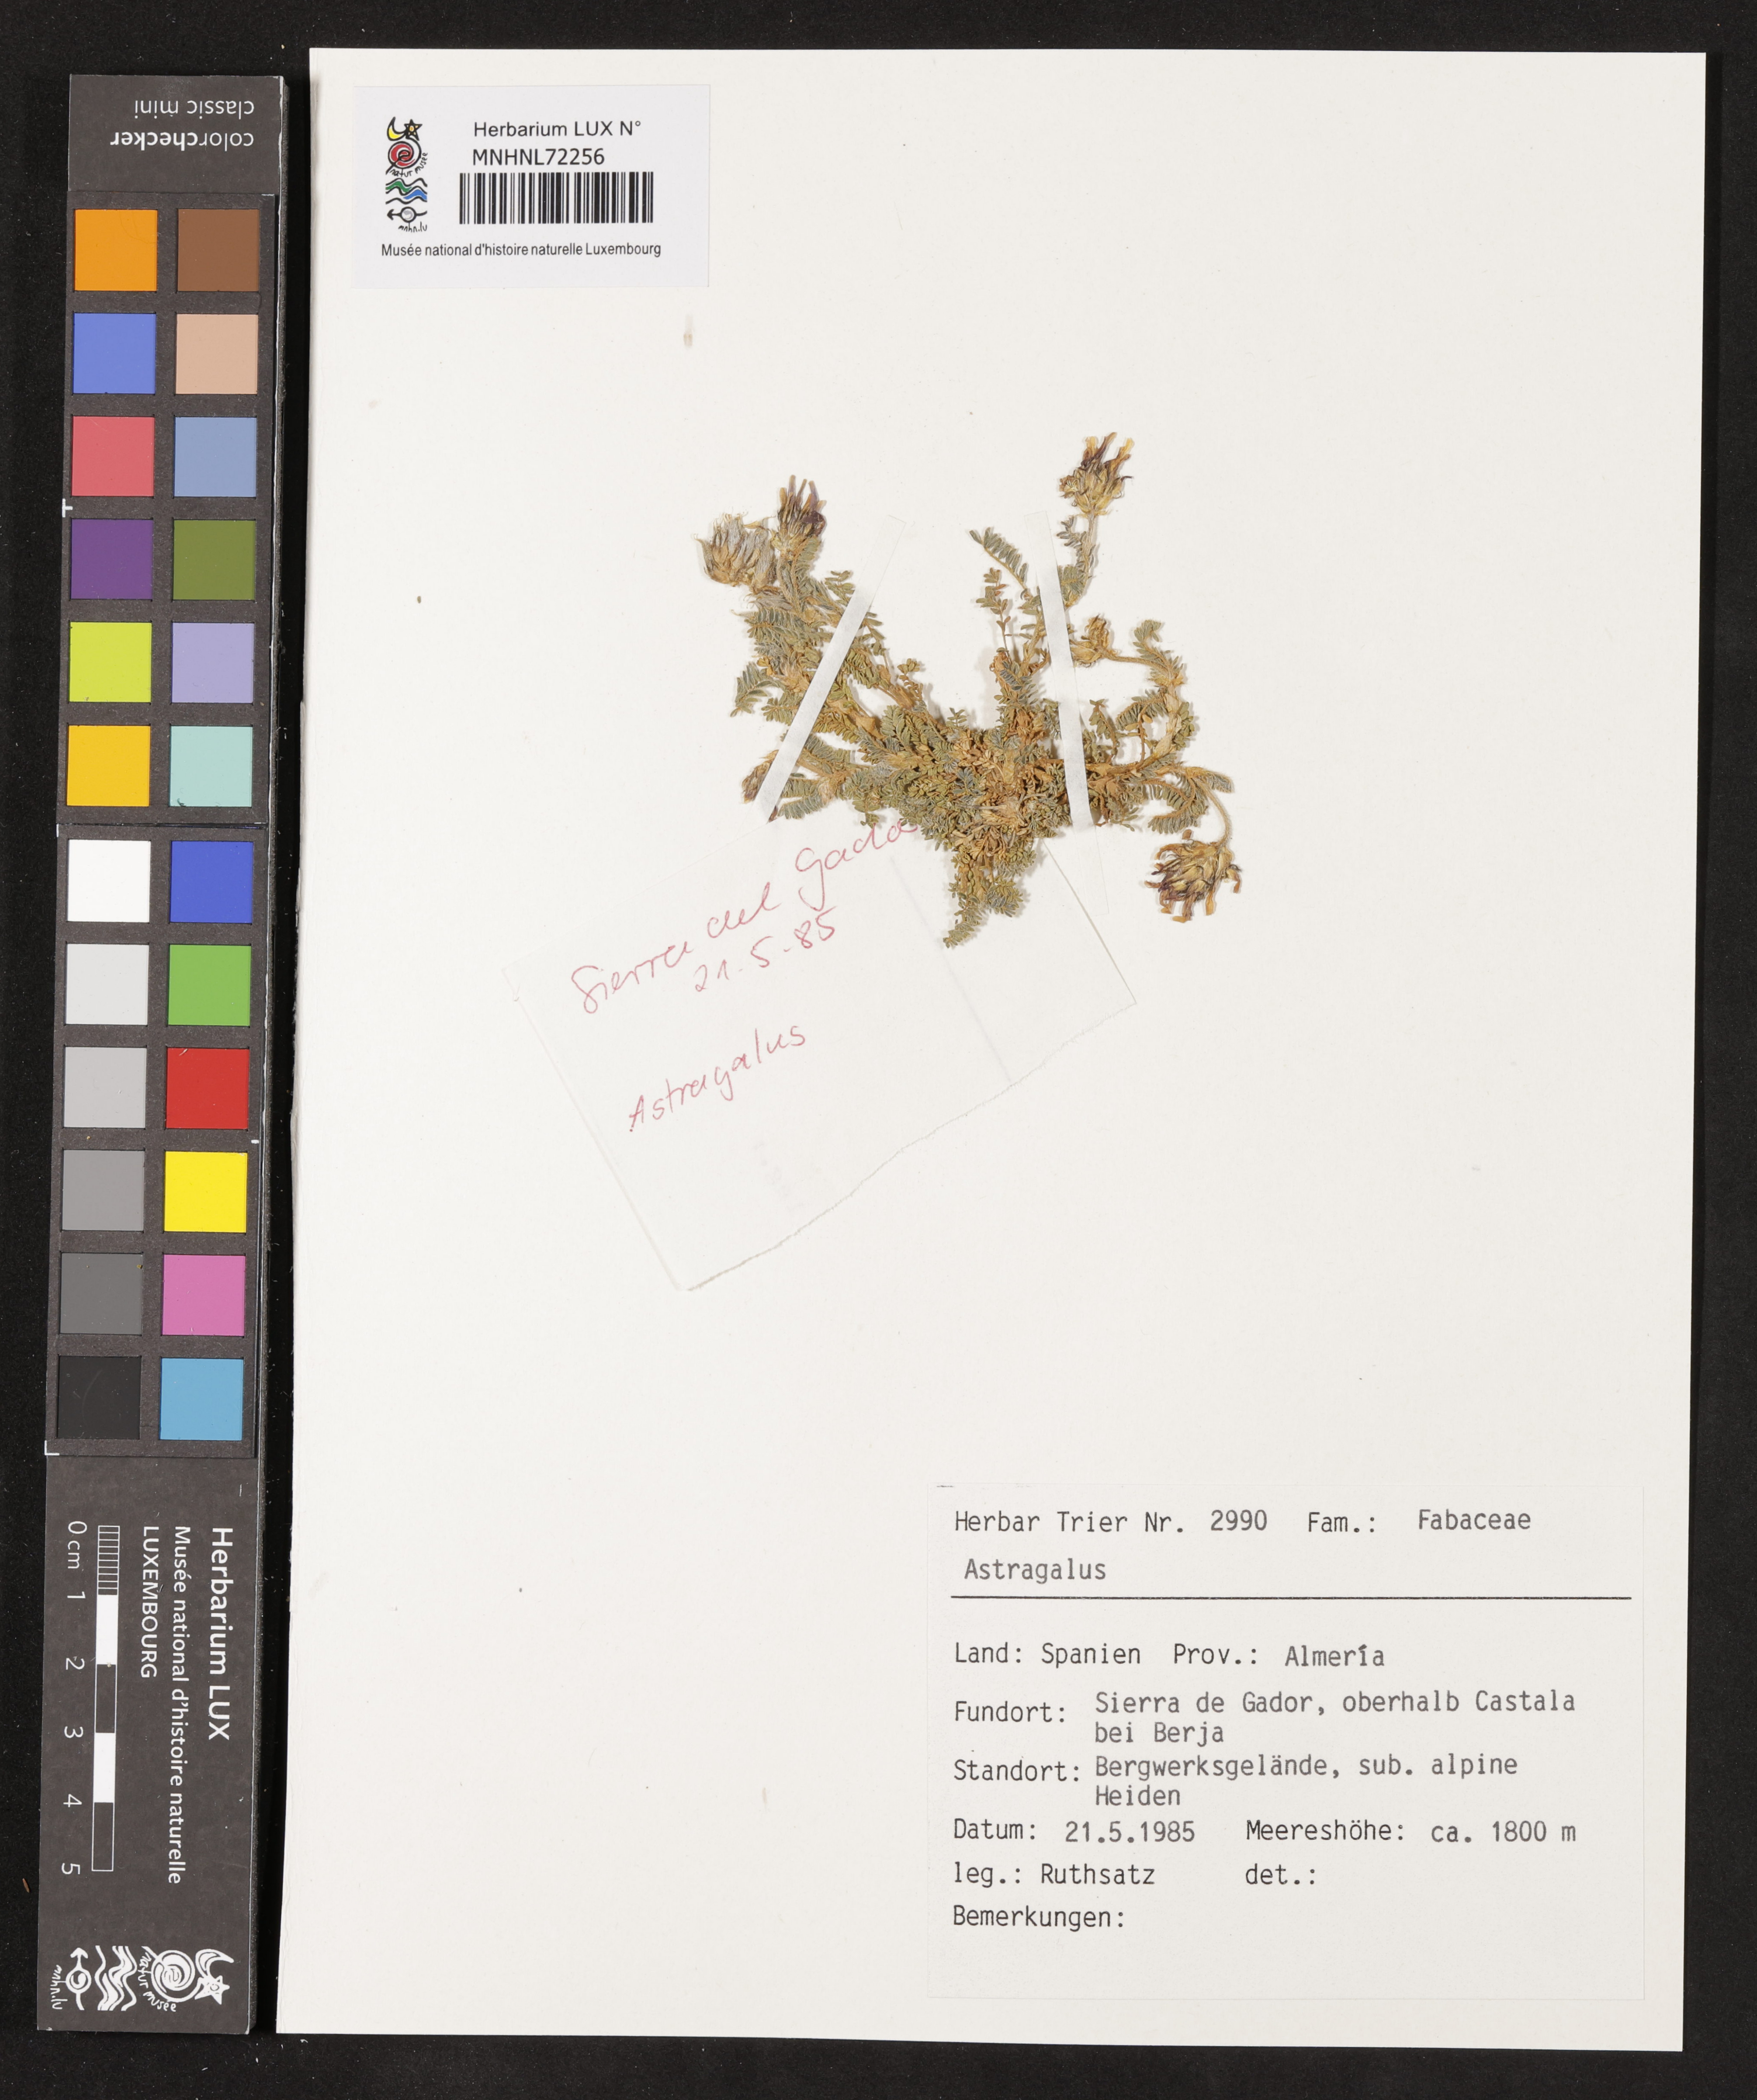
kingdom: Plantae
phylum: Tracheophyta
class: Magnoliopsida
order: Fabales
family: Fabaceae
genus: Astragalus
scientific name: Astragalus
